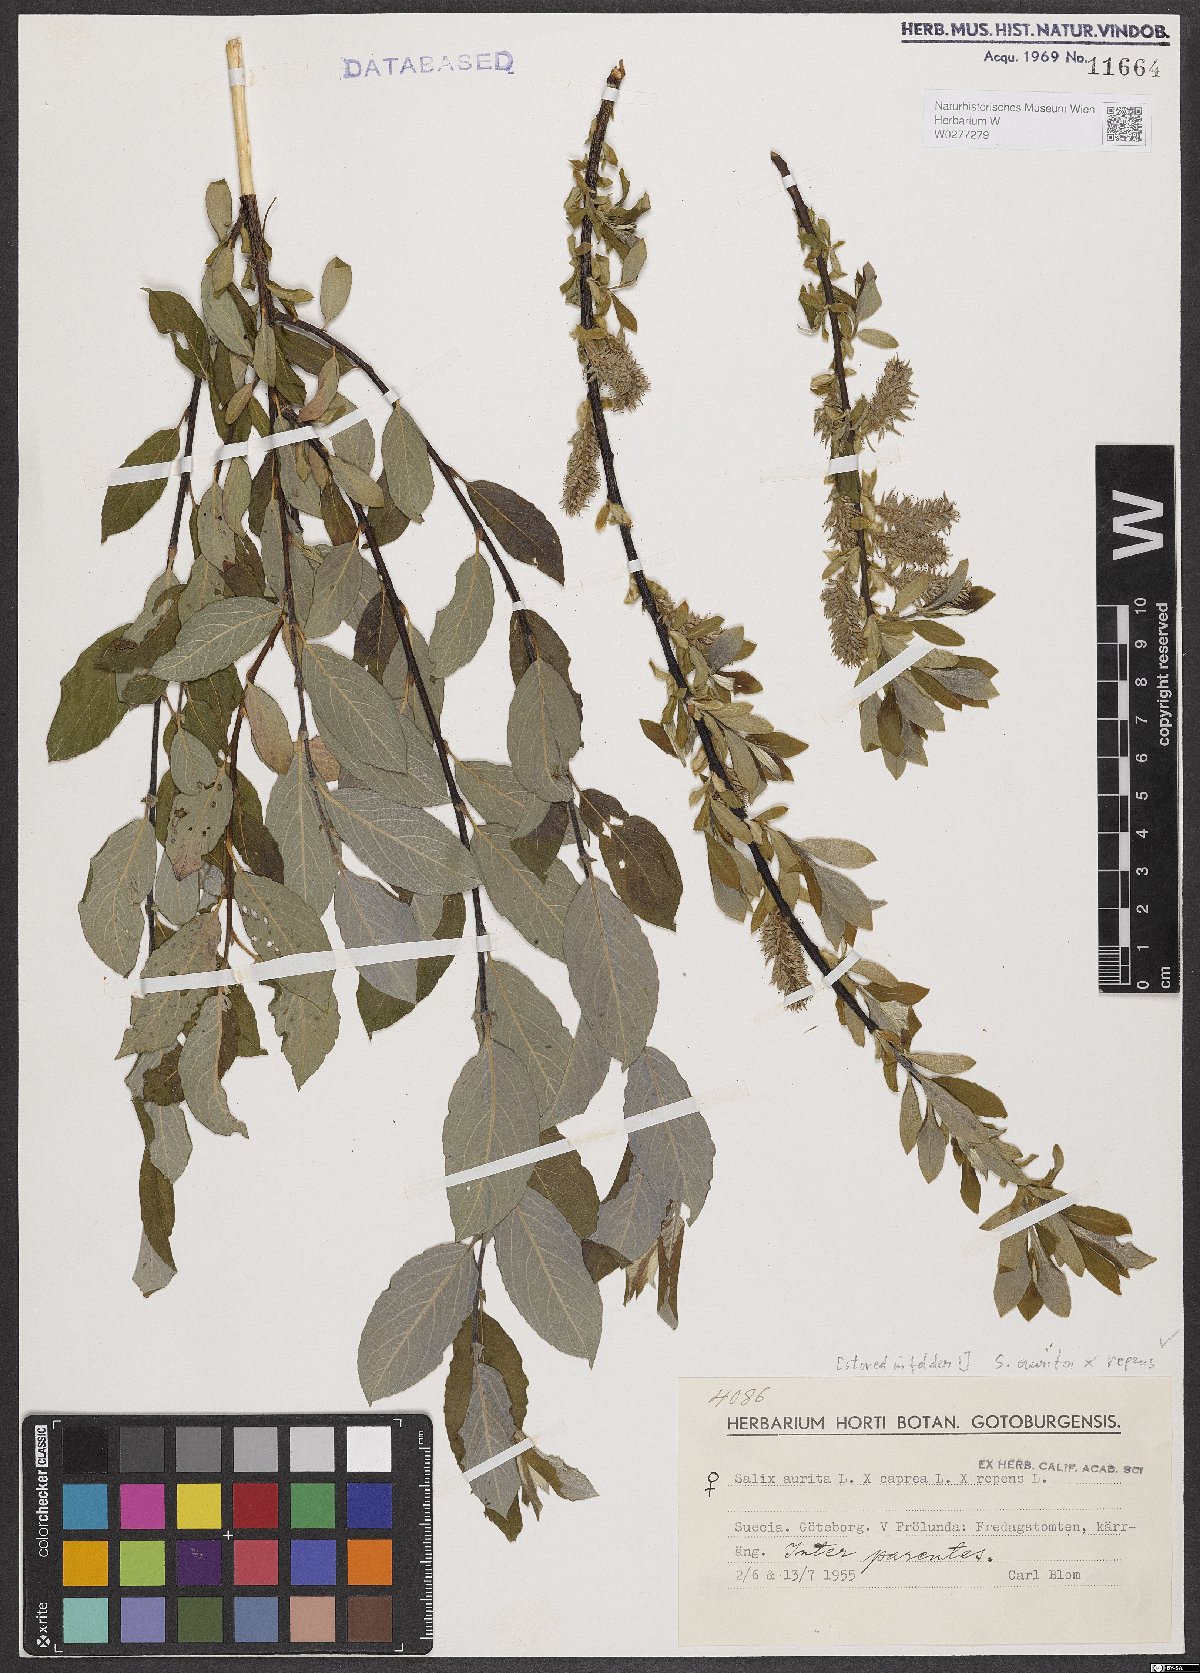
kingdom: Plantae
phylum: Tracheophyta
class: Magnoliopsida
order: Malpighiales
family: Salicaceae
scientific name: Salicaceae
